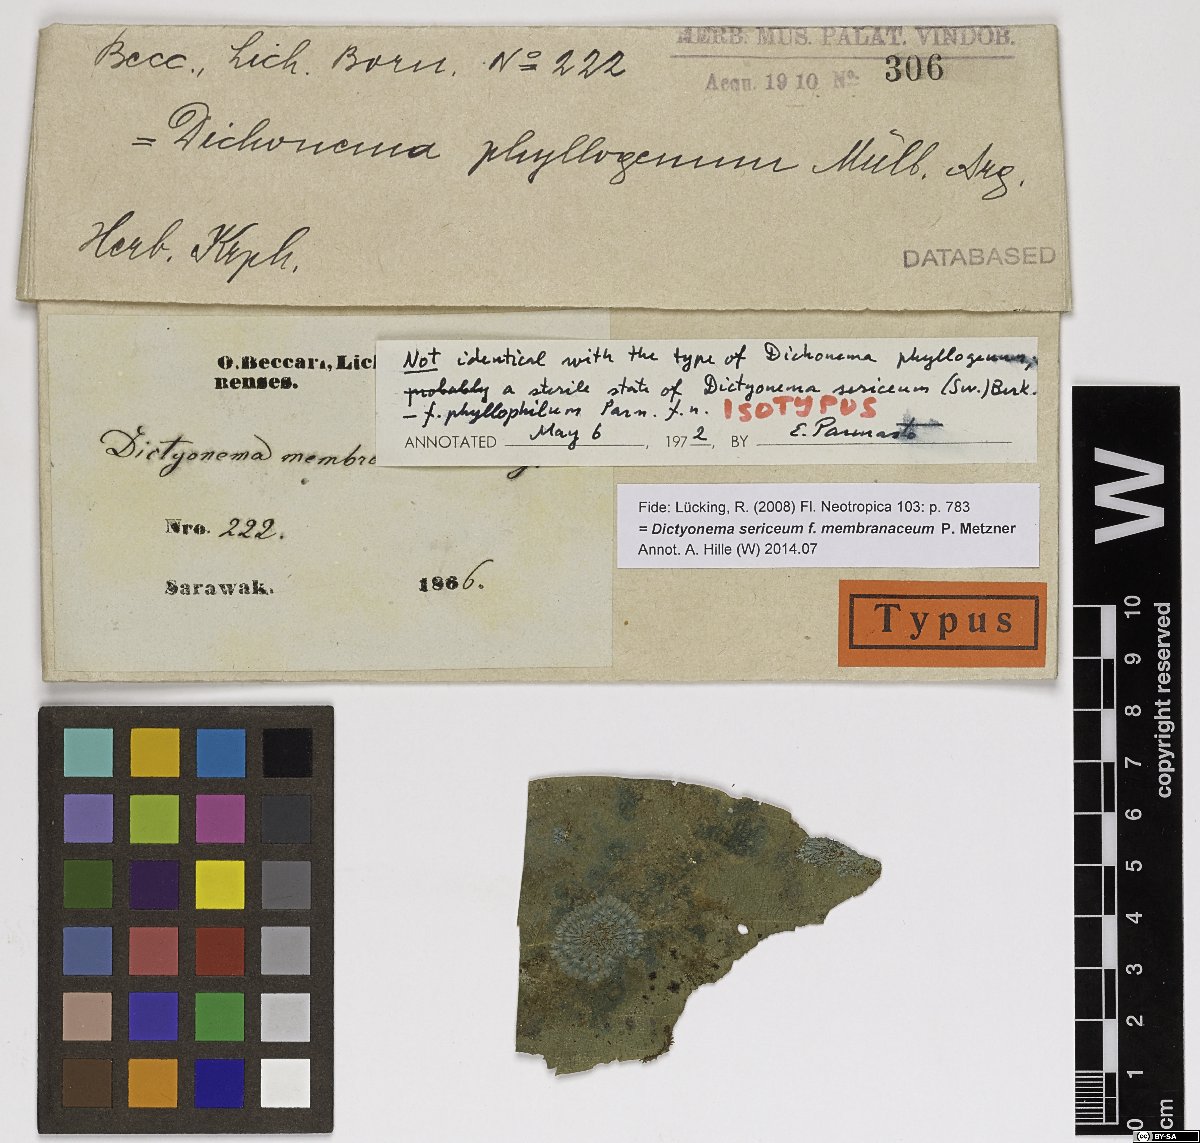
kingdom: Fungi
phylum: Basidiomycota
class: Agaricomycetes
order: Agaricales
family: Hygrophoraceae
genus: Dictyonema
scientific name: Dictyonema phyllophilum
